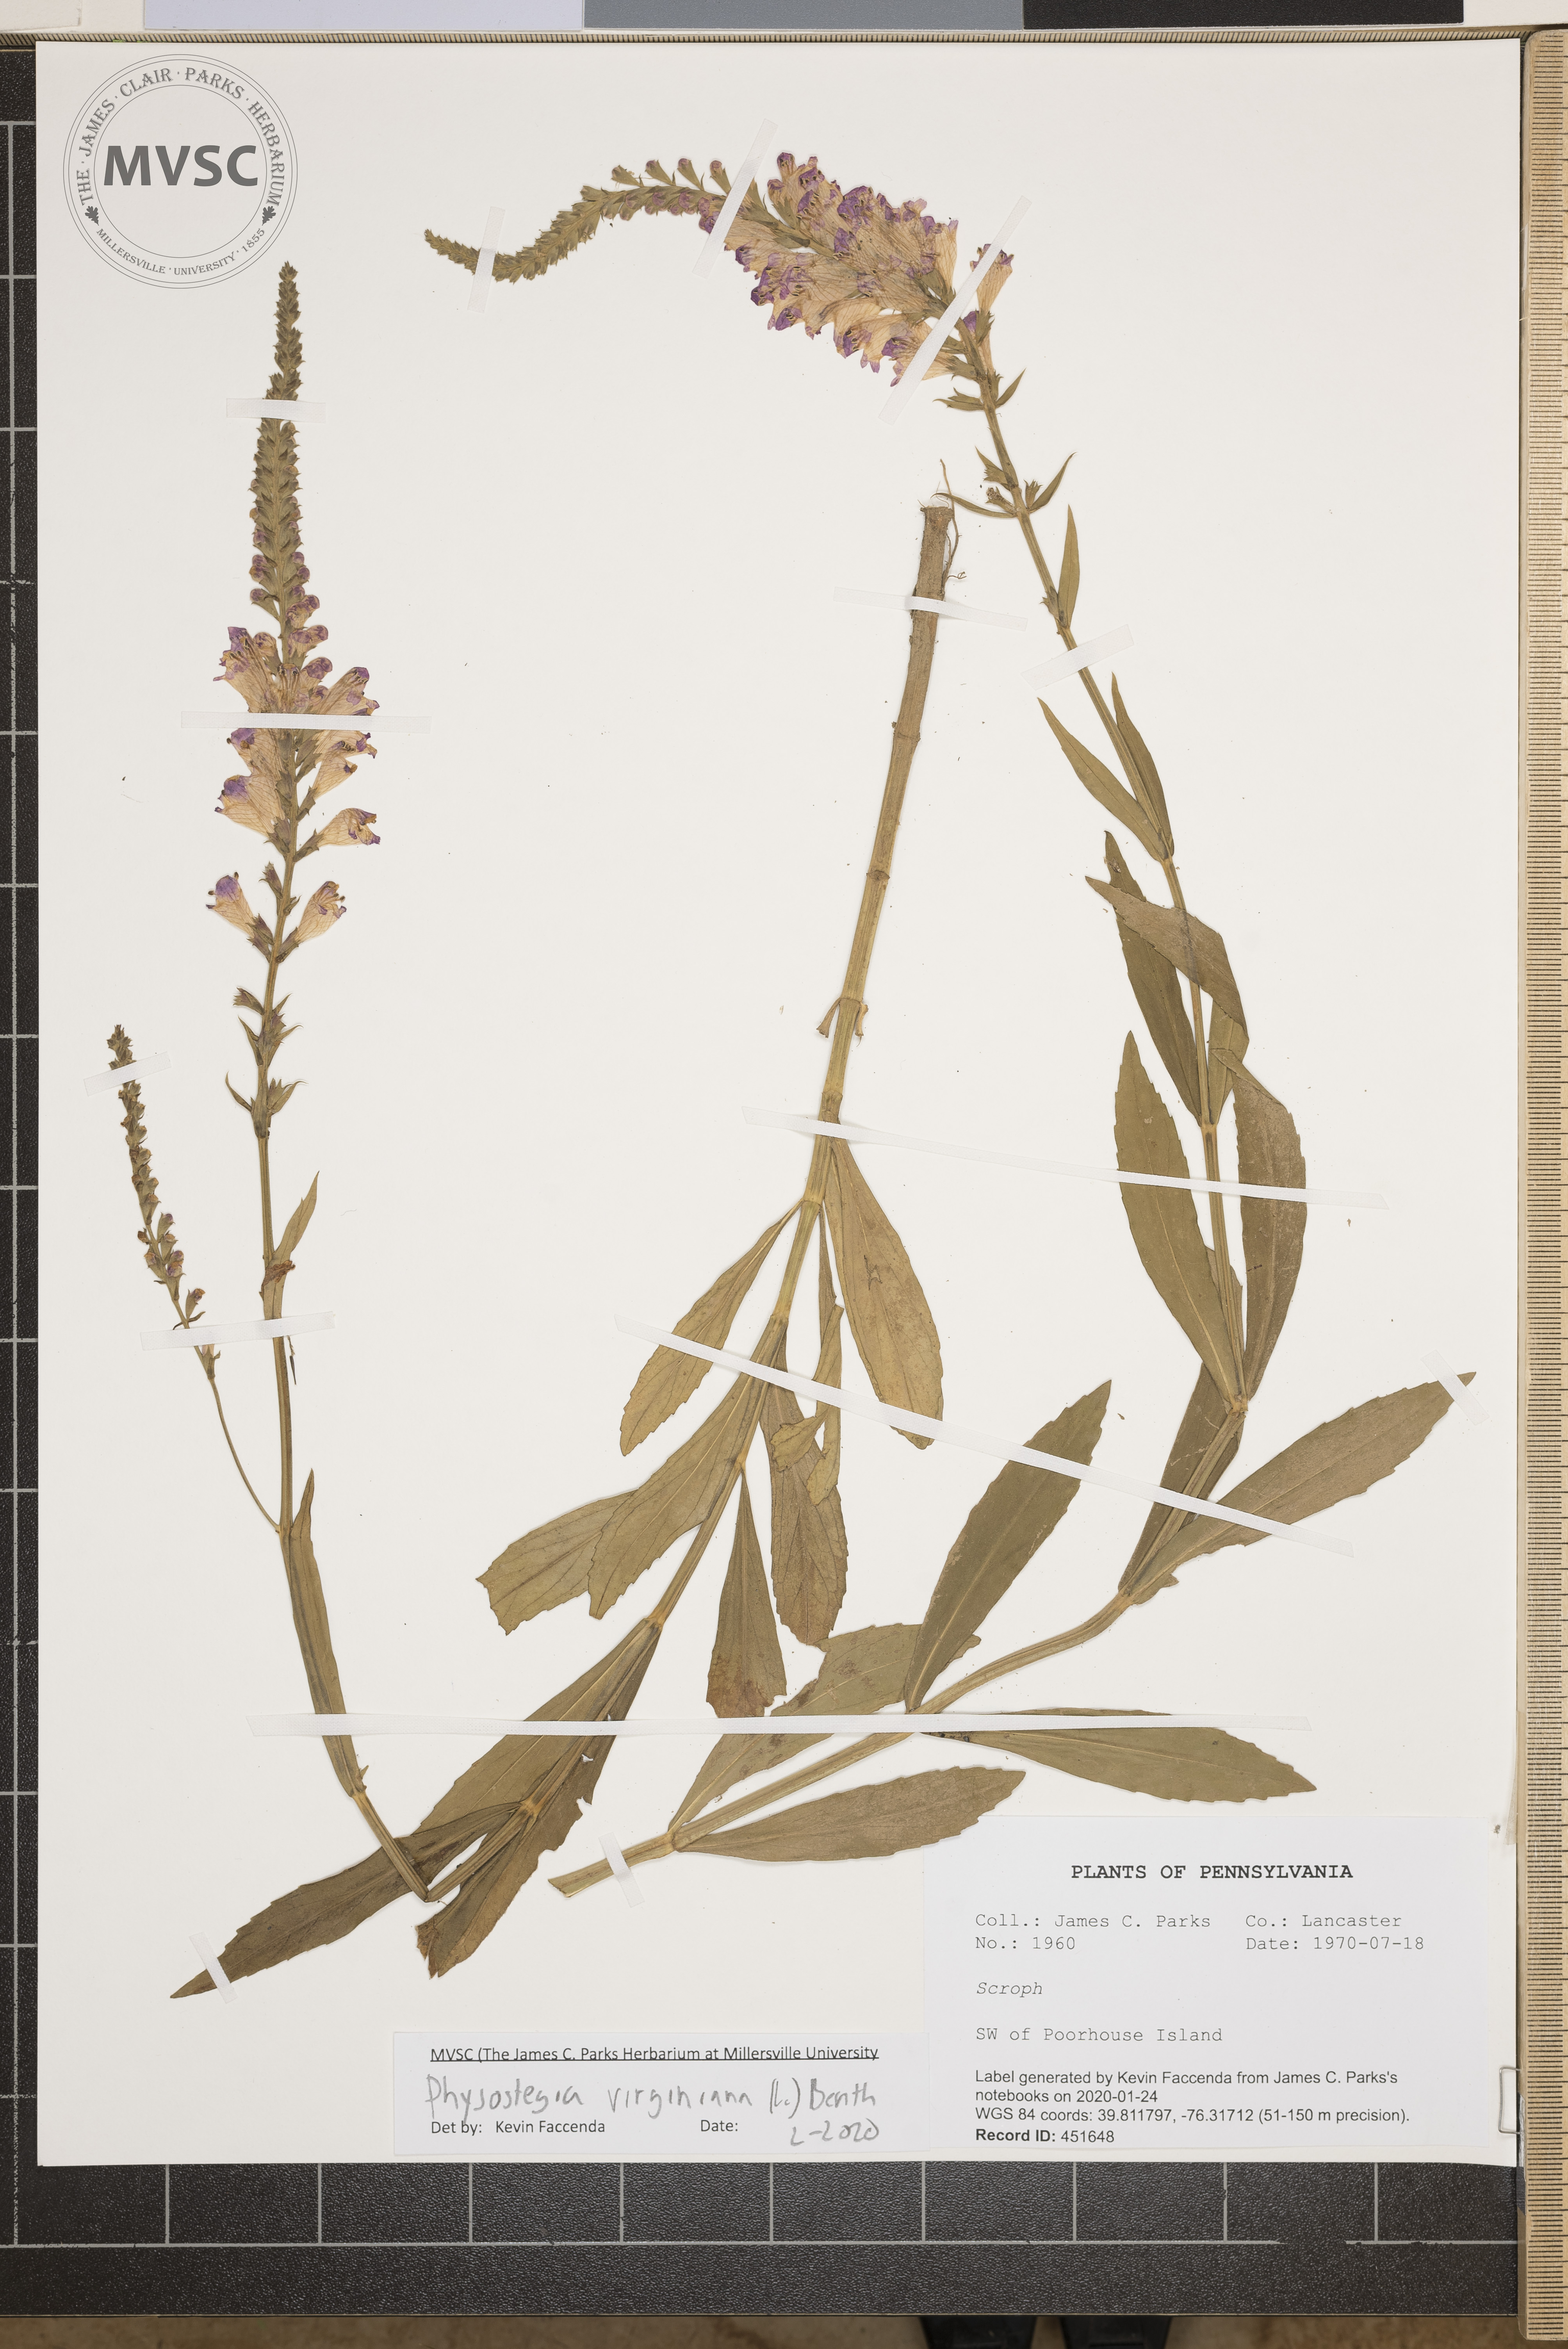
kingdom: Plantae
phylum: Tracheophyta
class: Magnoliopsida
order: Lamiales
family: Lamiaceae
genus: Physostegia
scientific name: Physostegia virginiana
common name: Obedient-plant
